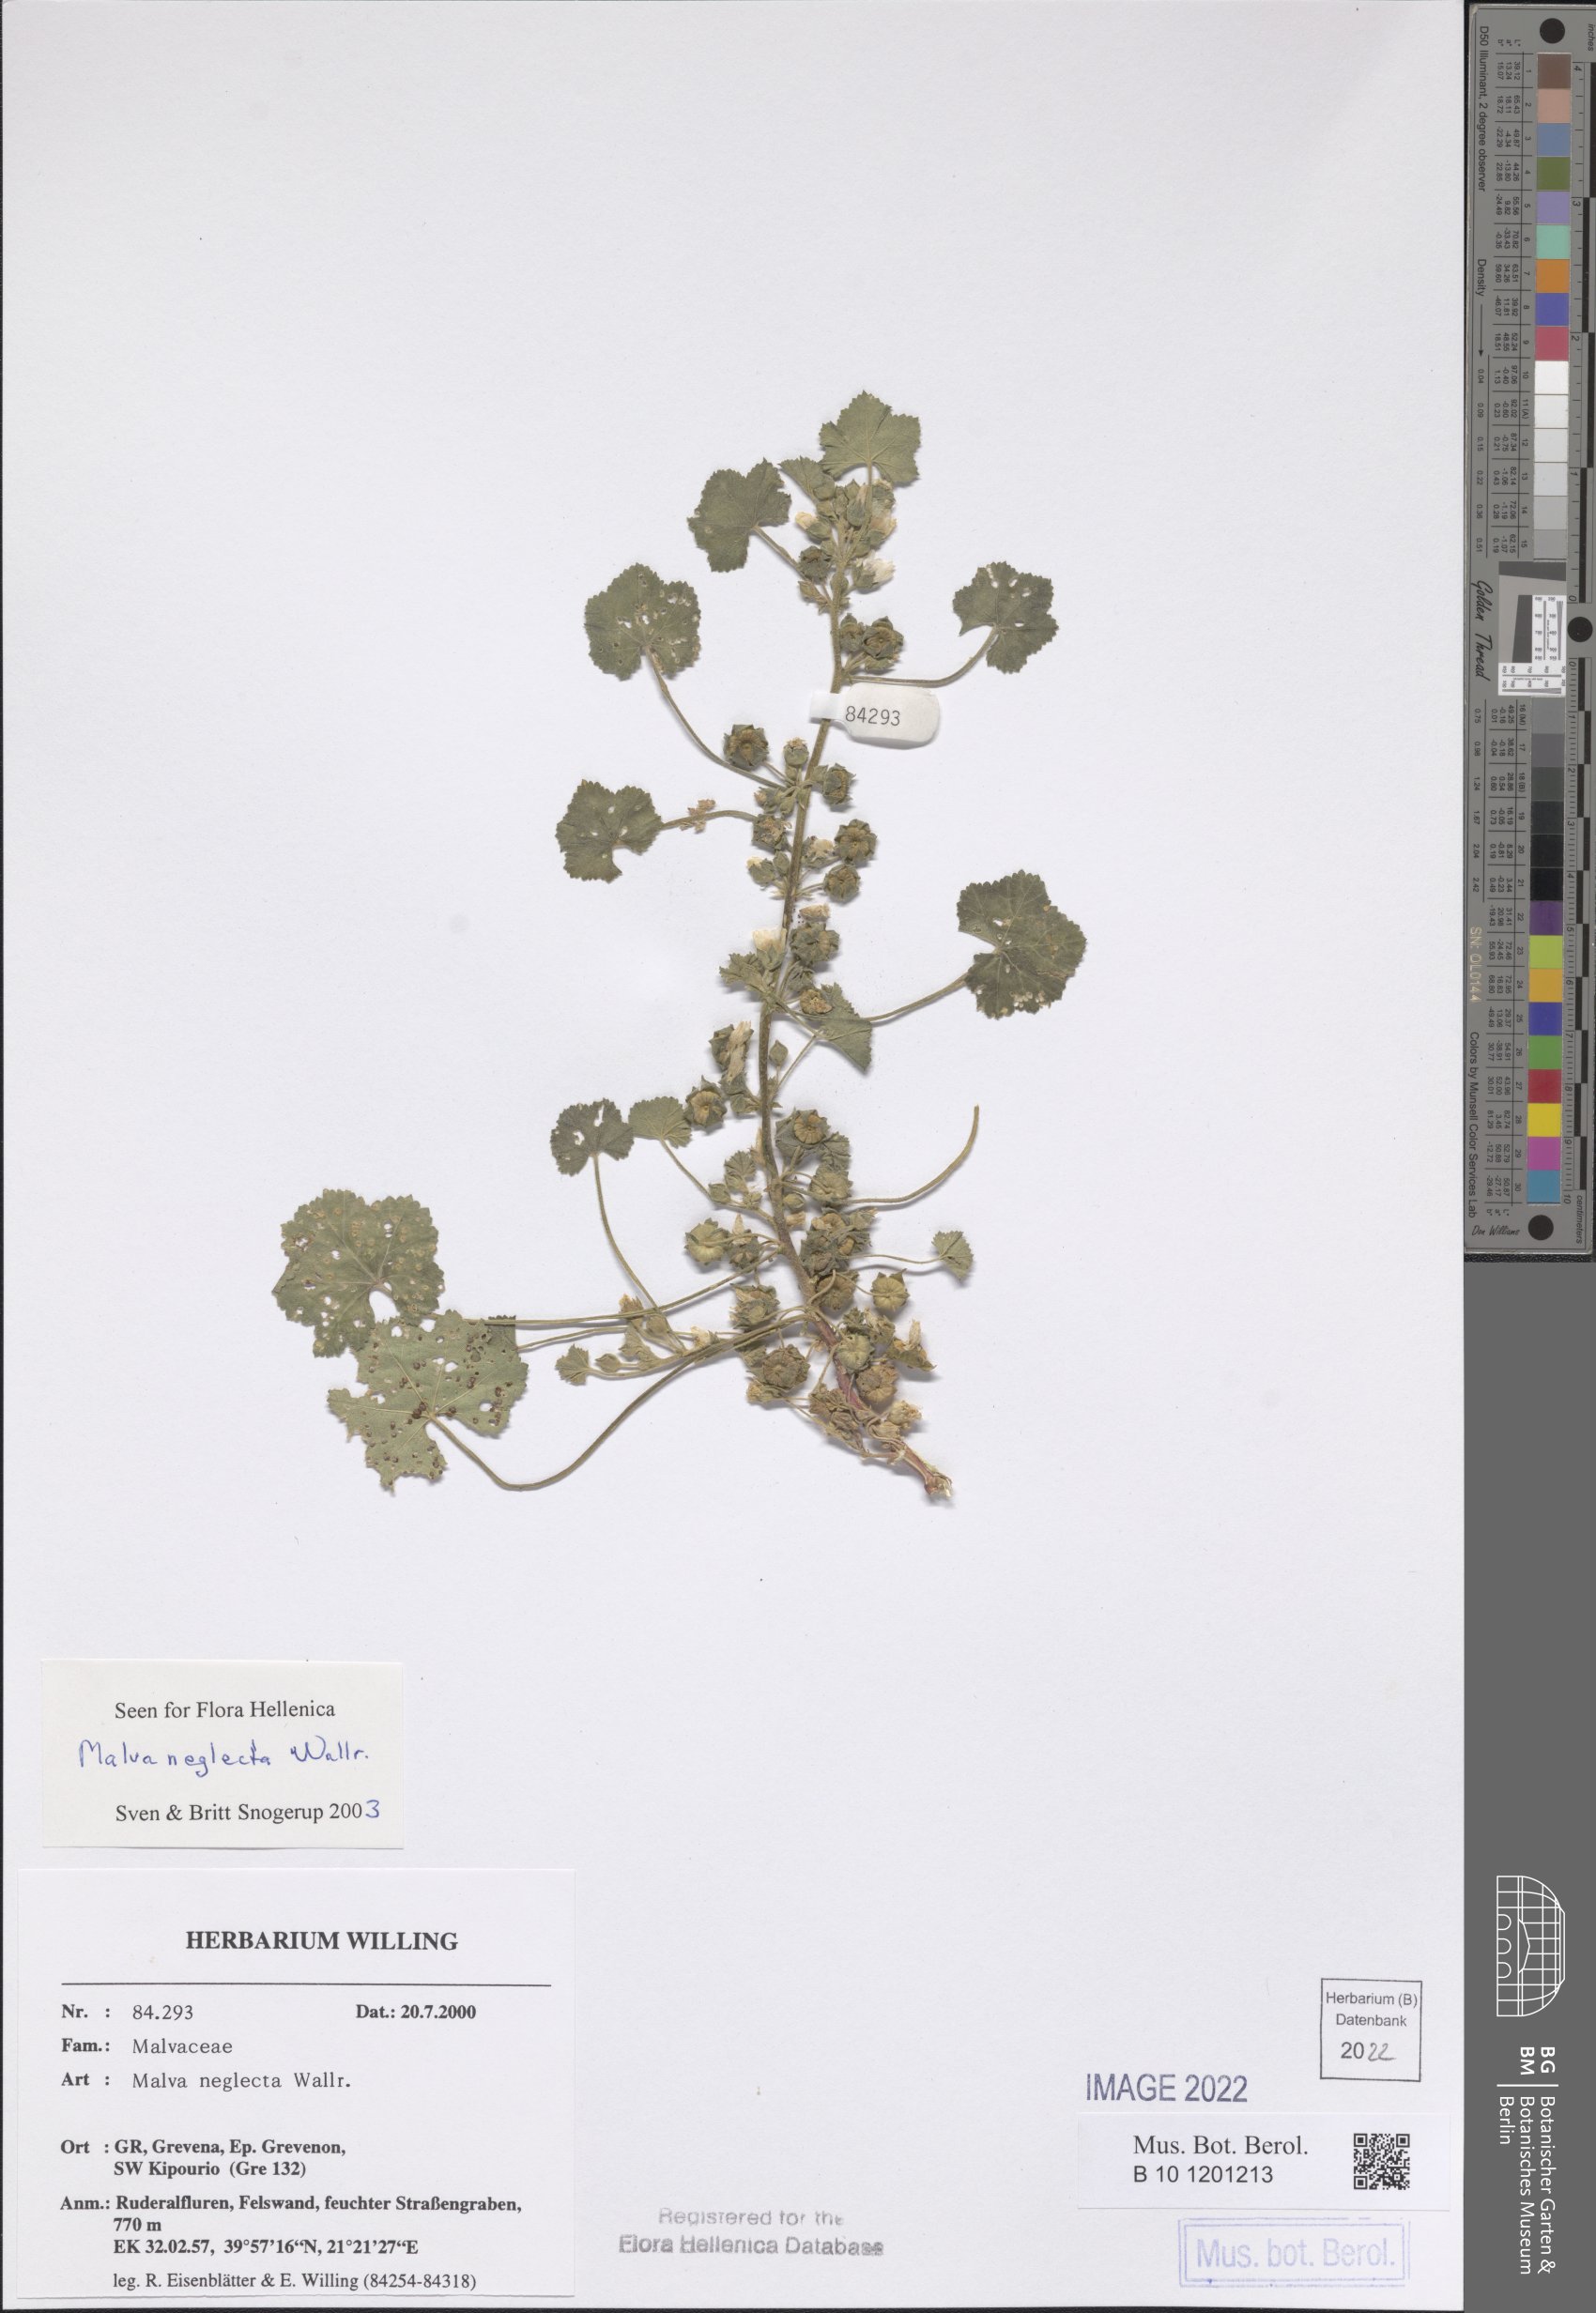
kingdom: Plantae
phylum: Tracheophyta
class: Magnoliopsida
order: Malvales
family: Malvaceae
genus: Malva
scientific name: Malva neglecta
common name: Common mallow
